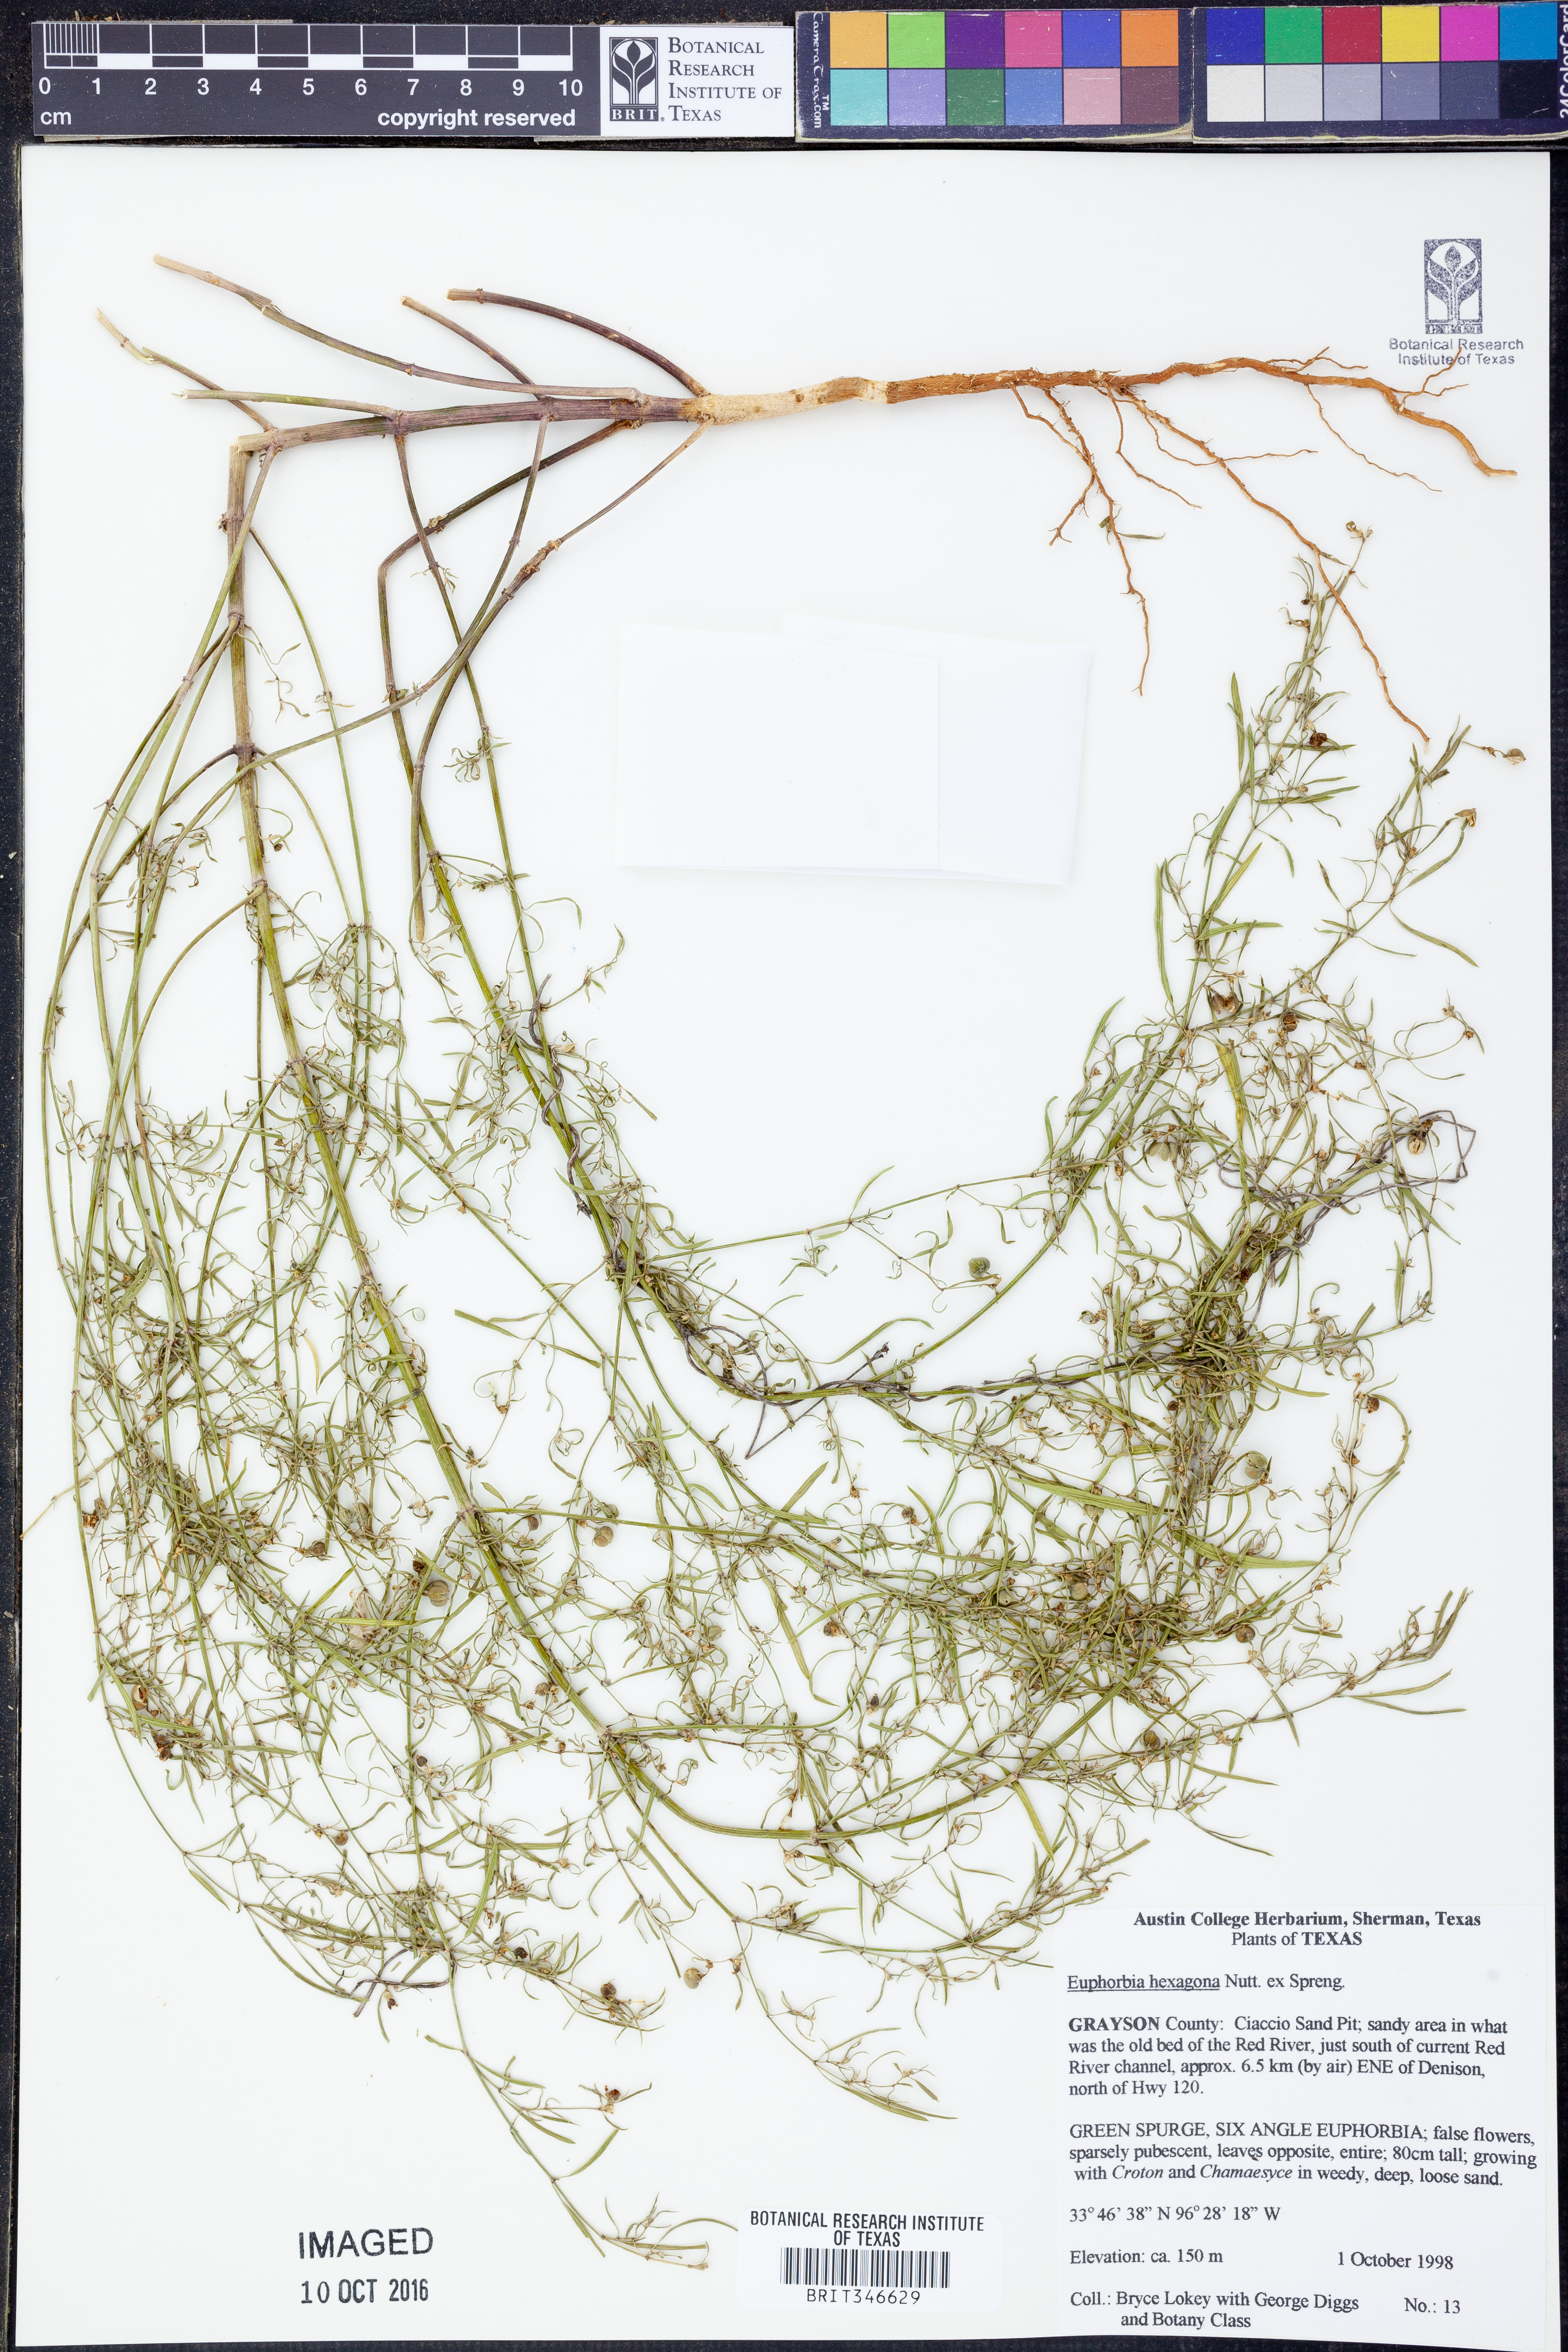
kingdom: Plantae
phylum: Tracheophyta
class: Magnoliopsida
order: Malpighiales
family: Euphorbiaceae
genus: Euphorbia
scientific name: Euphorbia hexagona
